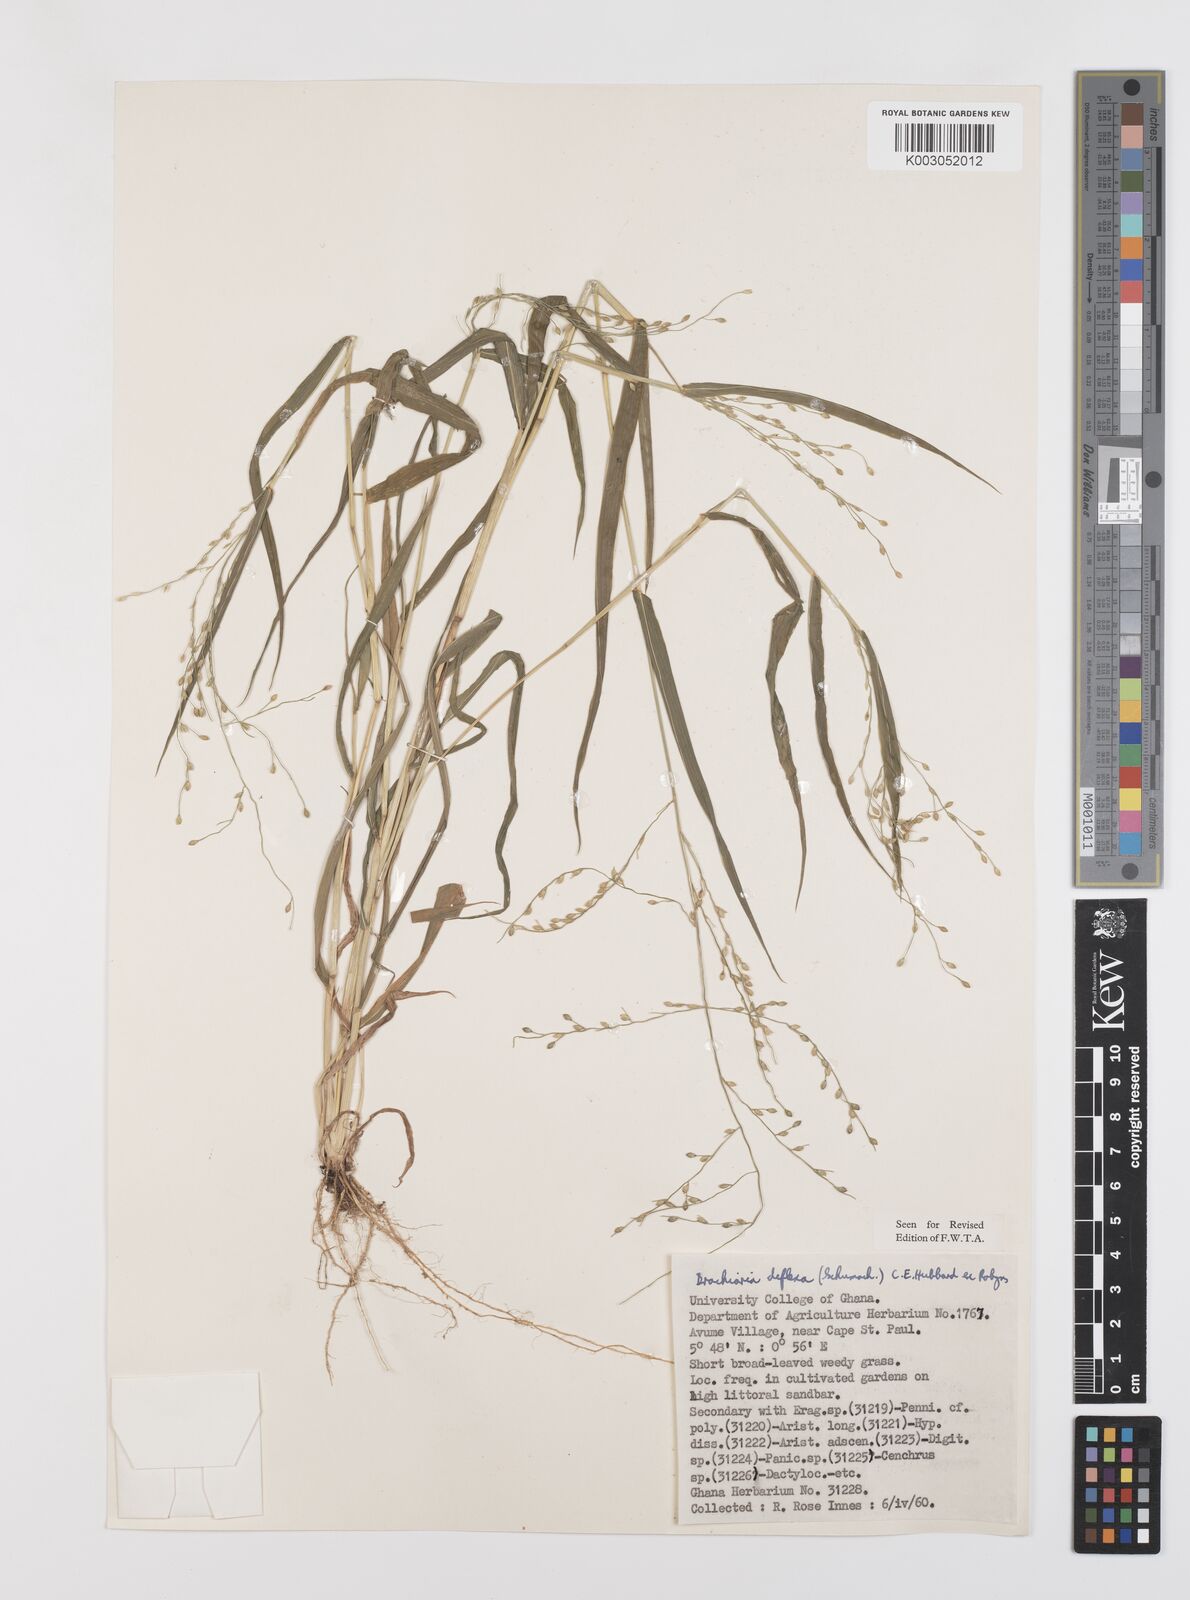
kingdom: Plantae
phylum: Tracheophyta
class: Liliopsida
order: Poales
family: Poaceae
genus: Urochloa
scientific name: Urochloa deflexa
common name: Guinea millet
